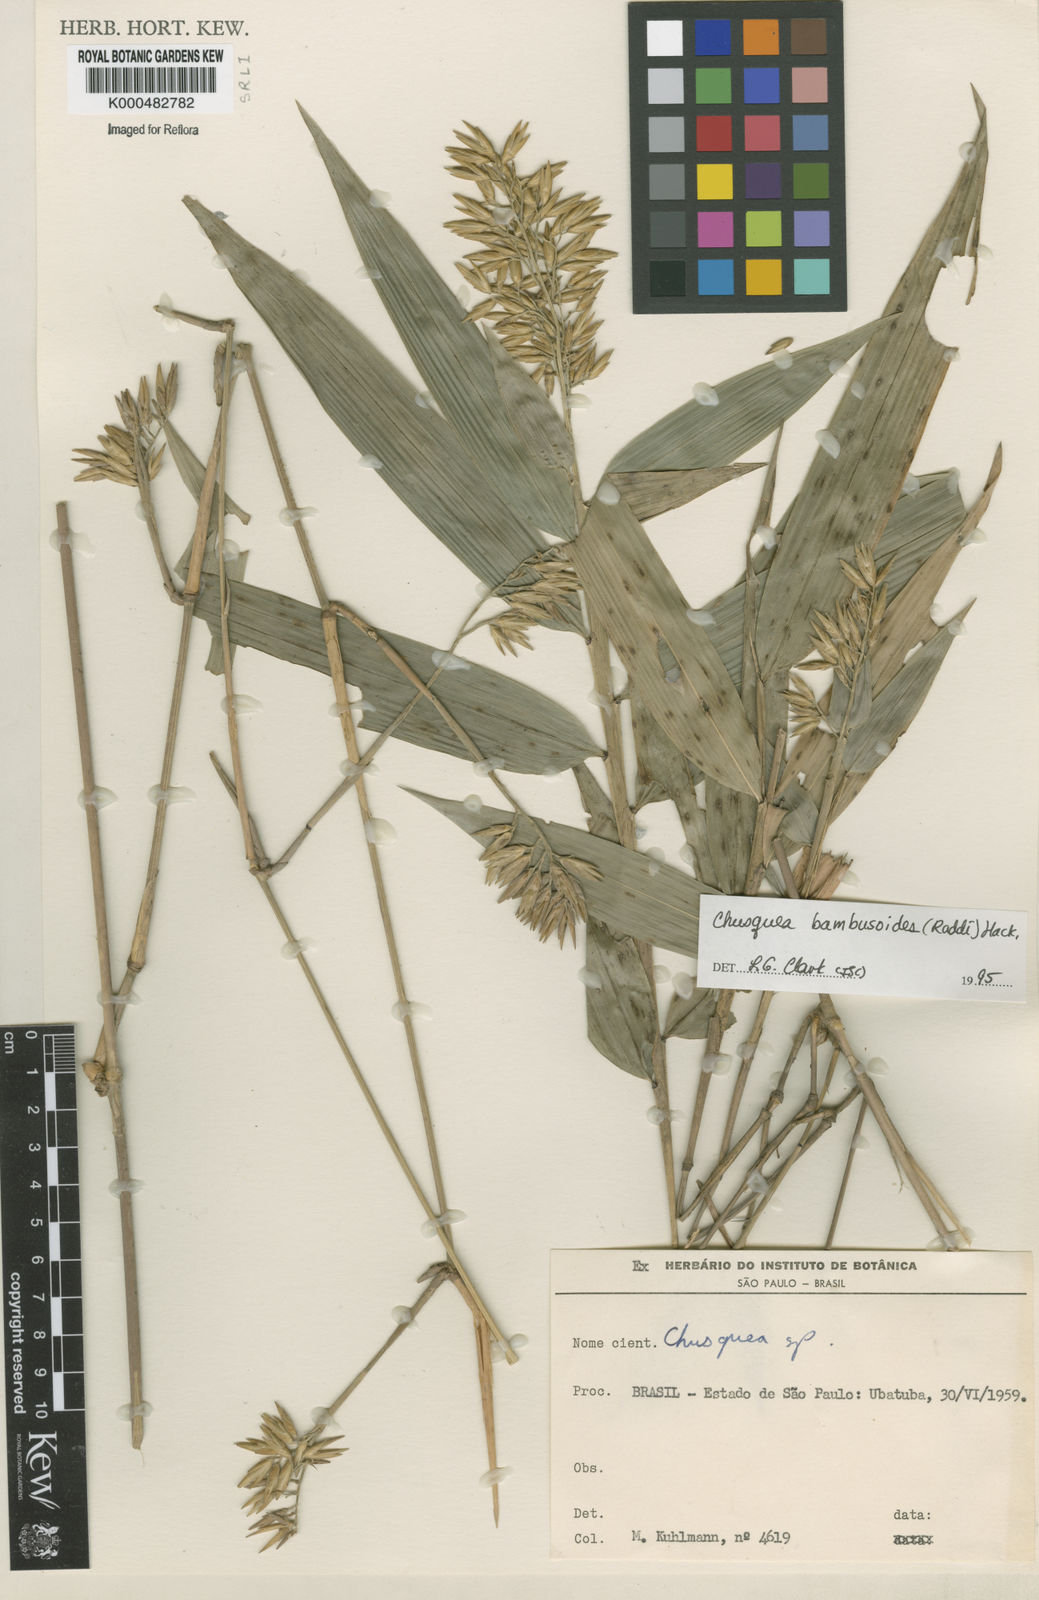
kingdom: Plantae
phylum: Tracheophyta
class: Liliopsida
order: Poales
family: Poaceae
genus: Chusquea
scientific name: Chusquea bambusoides
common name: Brazil scrambling bamboo
